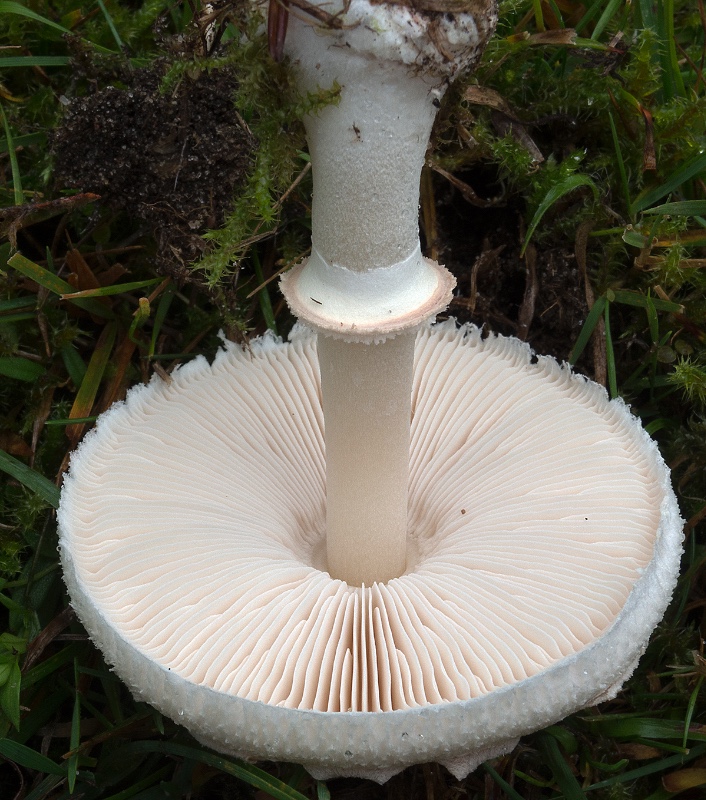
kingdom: Fungi
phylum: Basidiomycota
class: Agaricomycetes
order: Agaricales
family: Agaricaceae
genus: Macrolepiota
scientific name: Macrolepiota excoriata
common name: mark-kæmpeparasolhat
